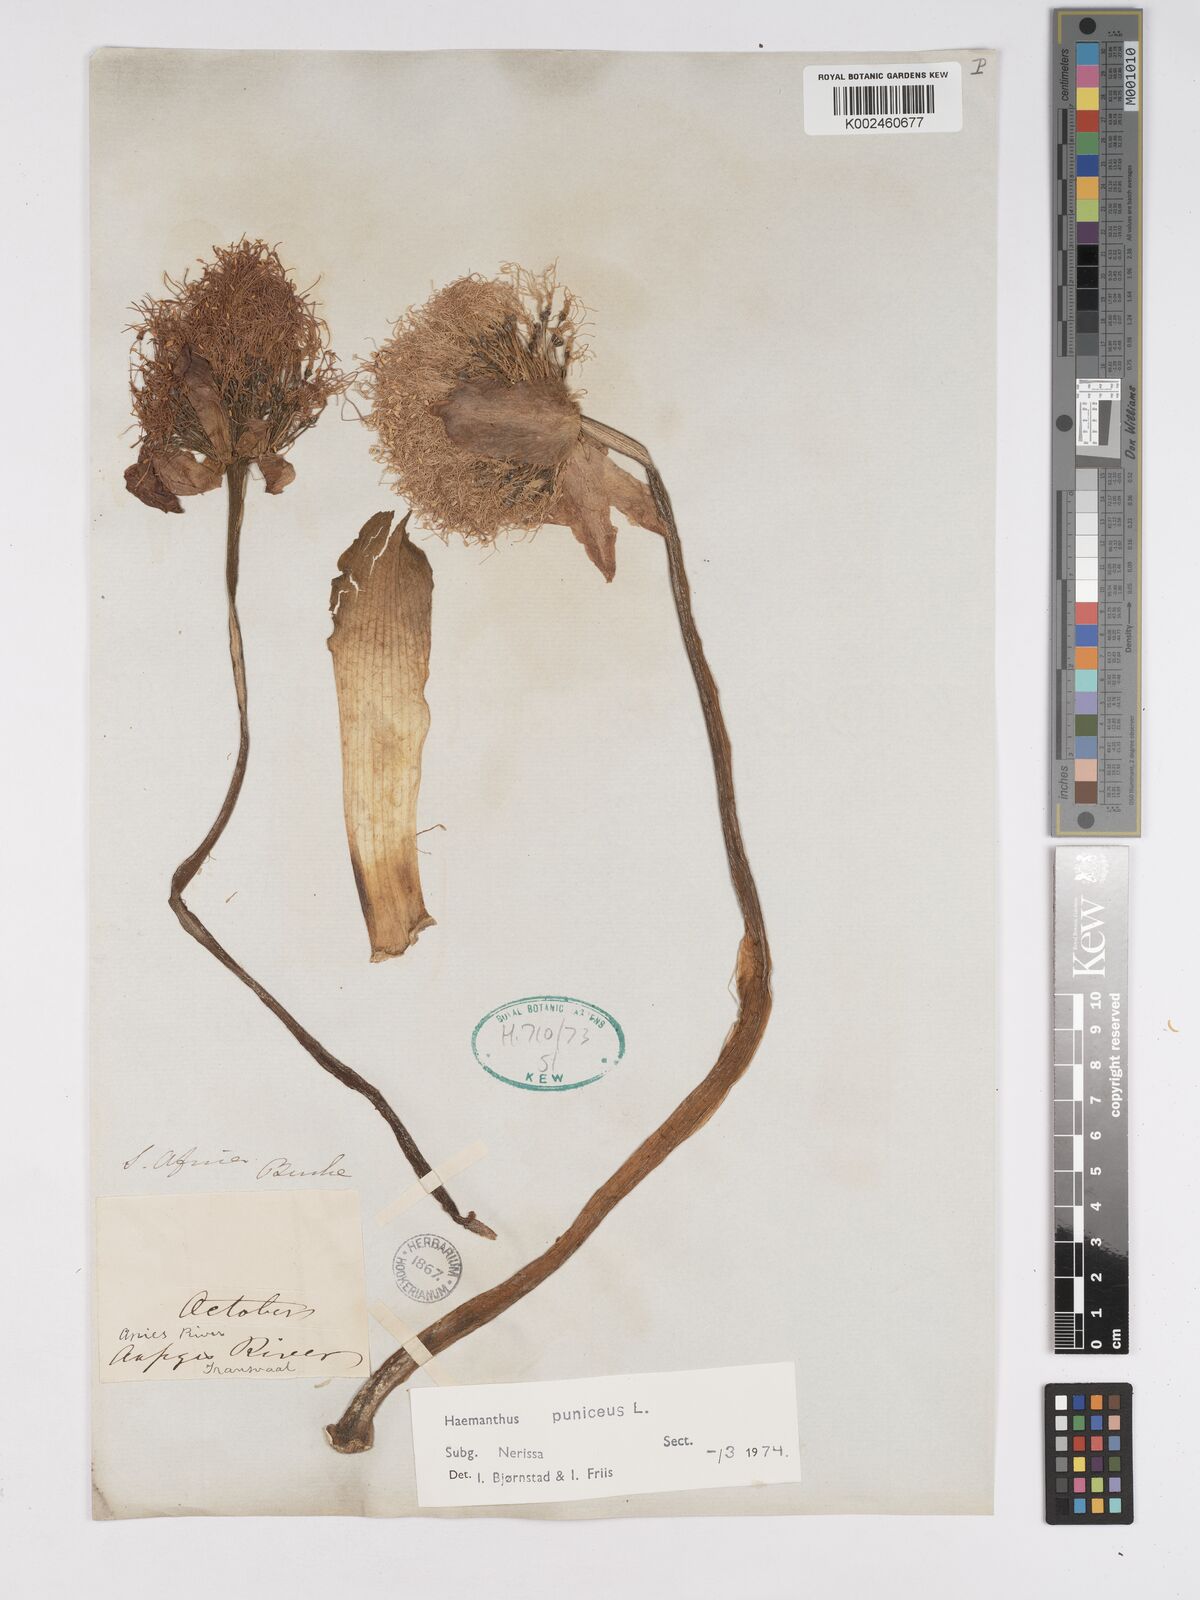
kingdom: Plantae
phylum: Tracheophyta
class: Liliopsida
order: Asparagales
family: Amaryllidaceae
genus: Scadoxus
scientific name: Scadoxus puniceus
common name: Royal-paintbrush
